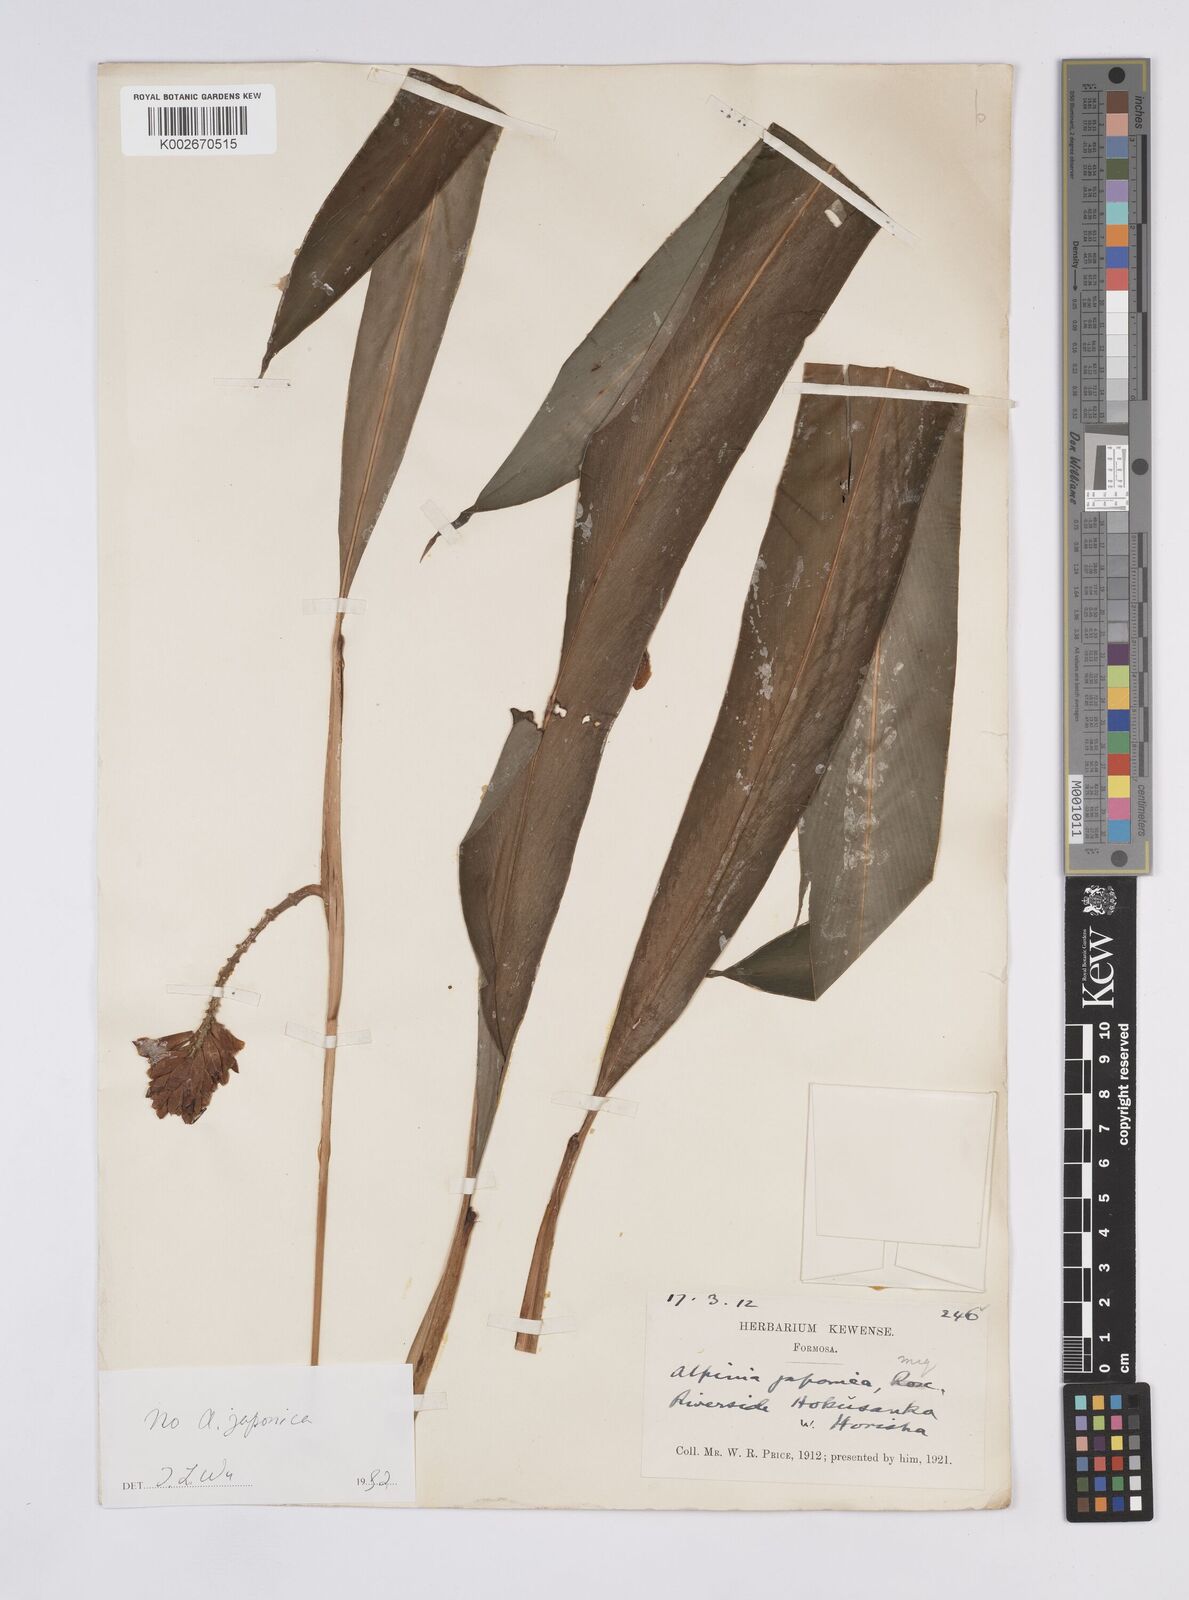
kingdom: Plantae
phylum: Tracheophyta
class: Liliopsida
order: Zingiberales
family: Zingiberaceae
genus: Alpinia
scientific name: Alpinia japonica
